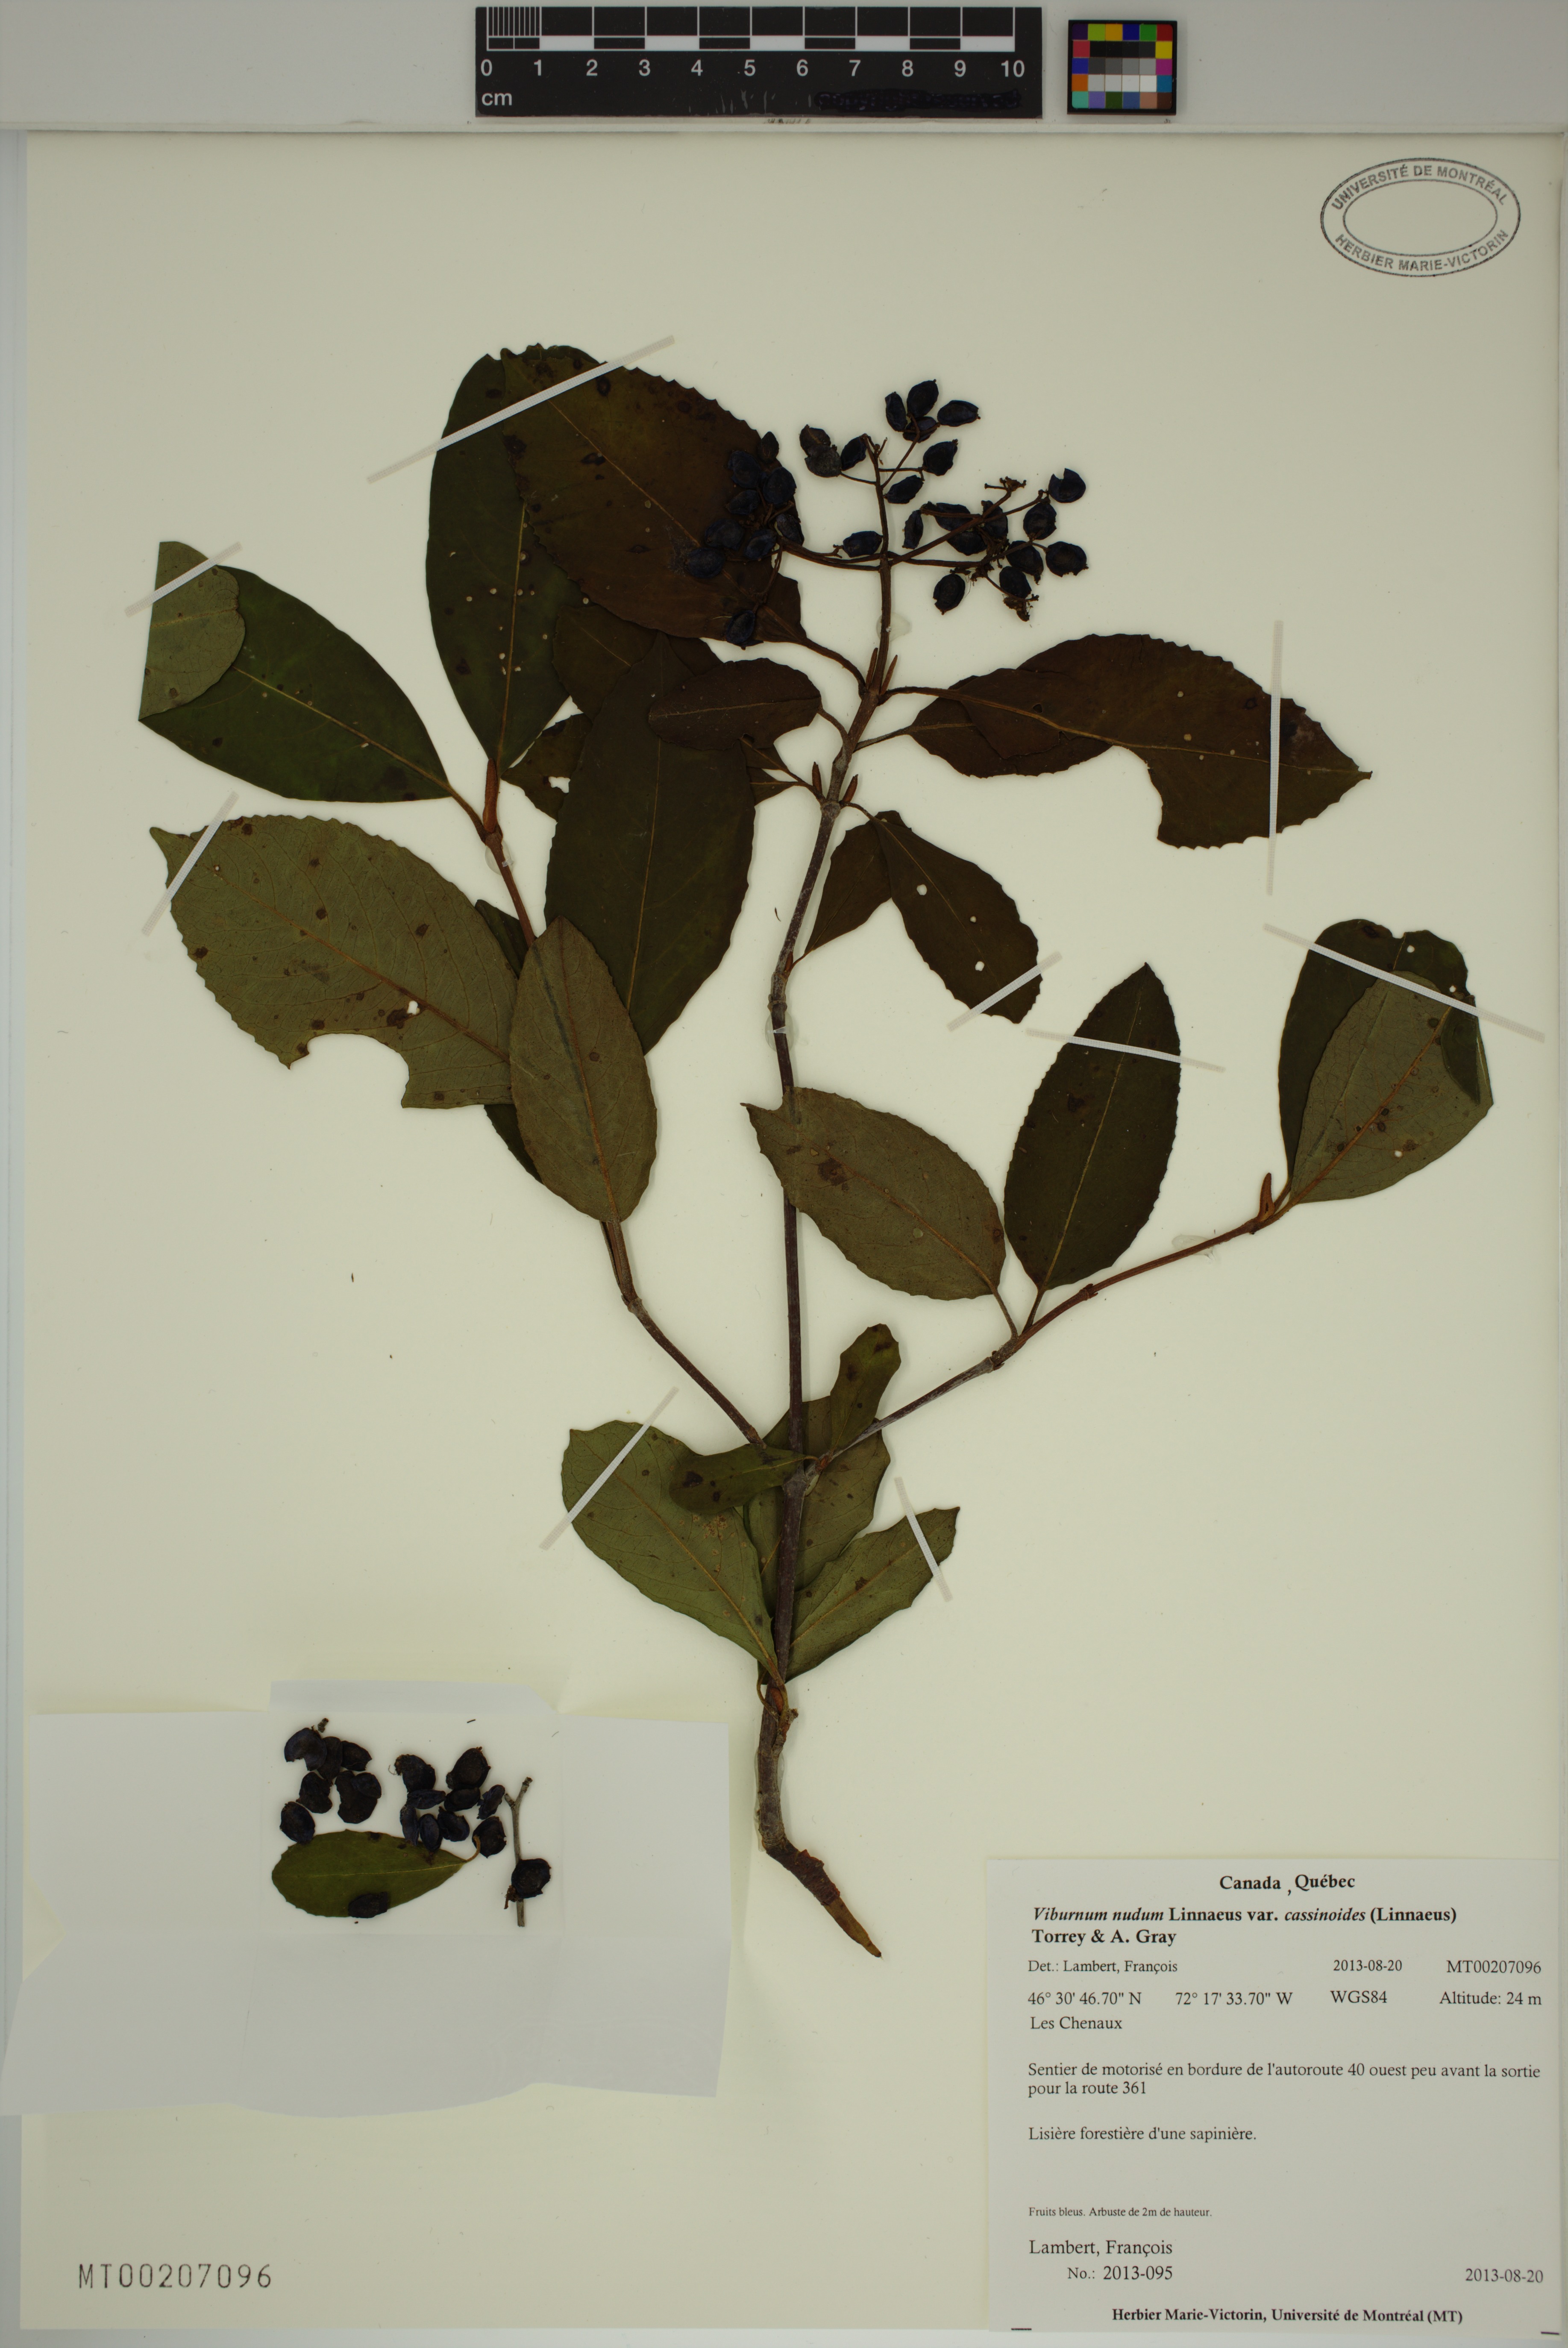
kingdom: Plantae
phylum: Tracheophyta
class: Magnoliopsida
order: Dipsacales
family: Viburnaceae
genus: Viburnum
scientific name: Viburnum cassinoides
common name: Swamp haw
